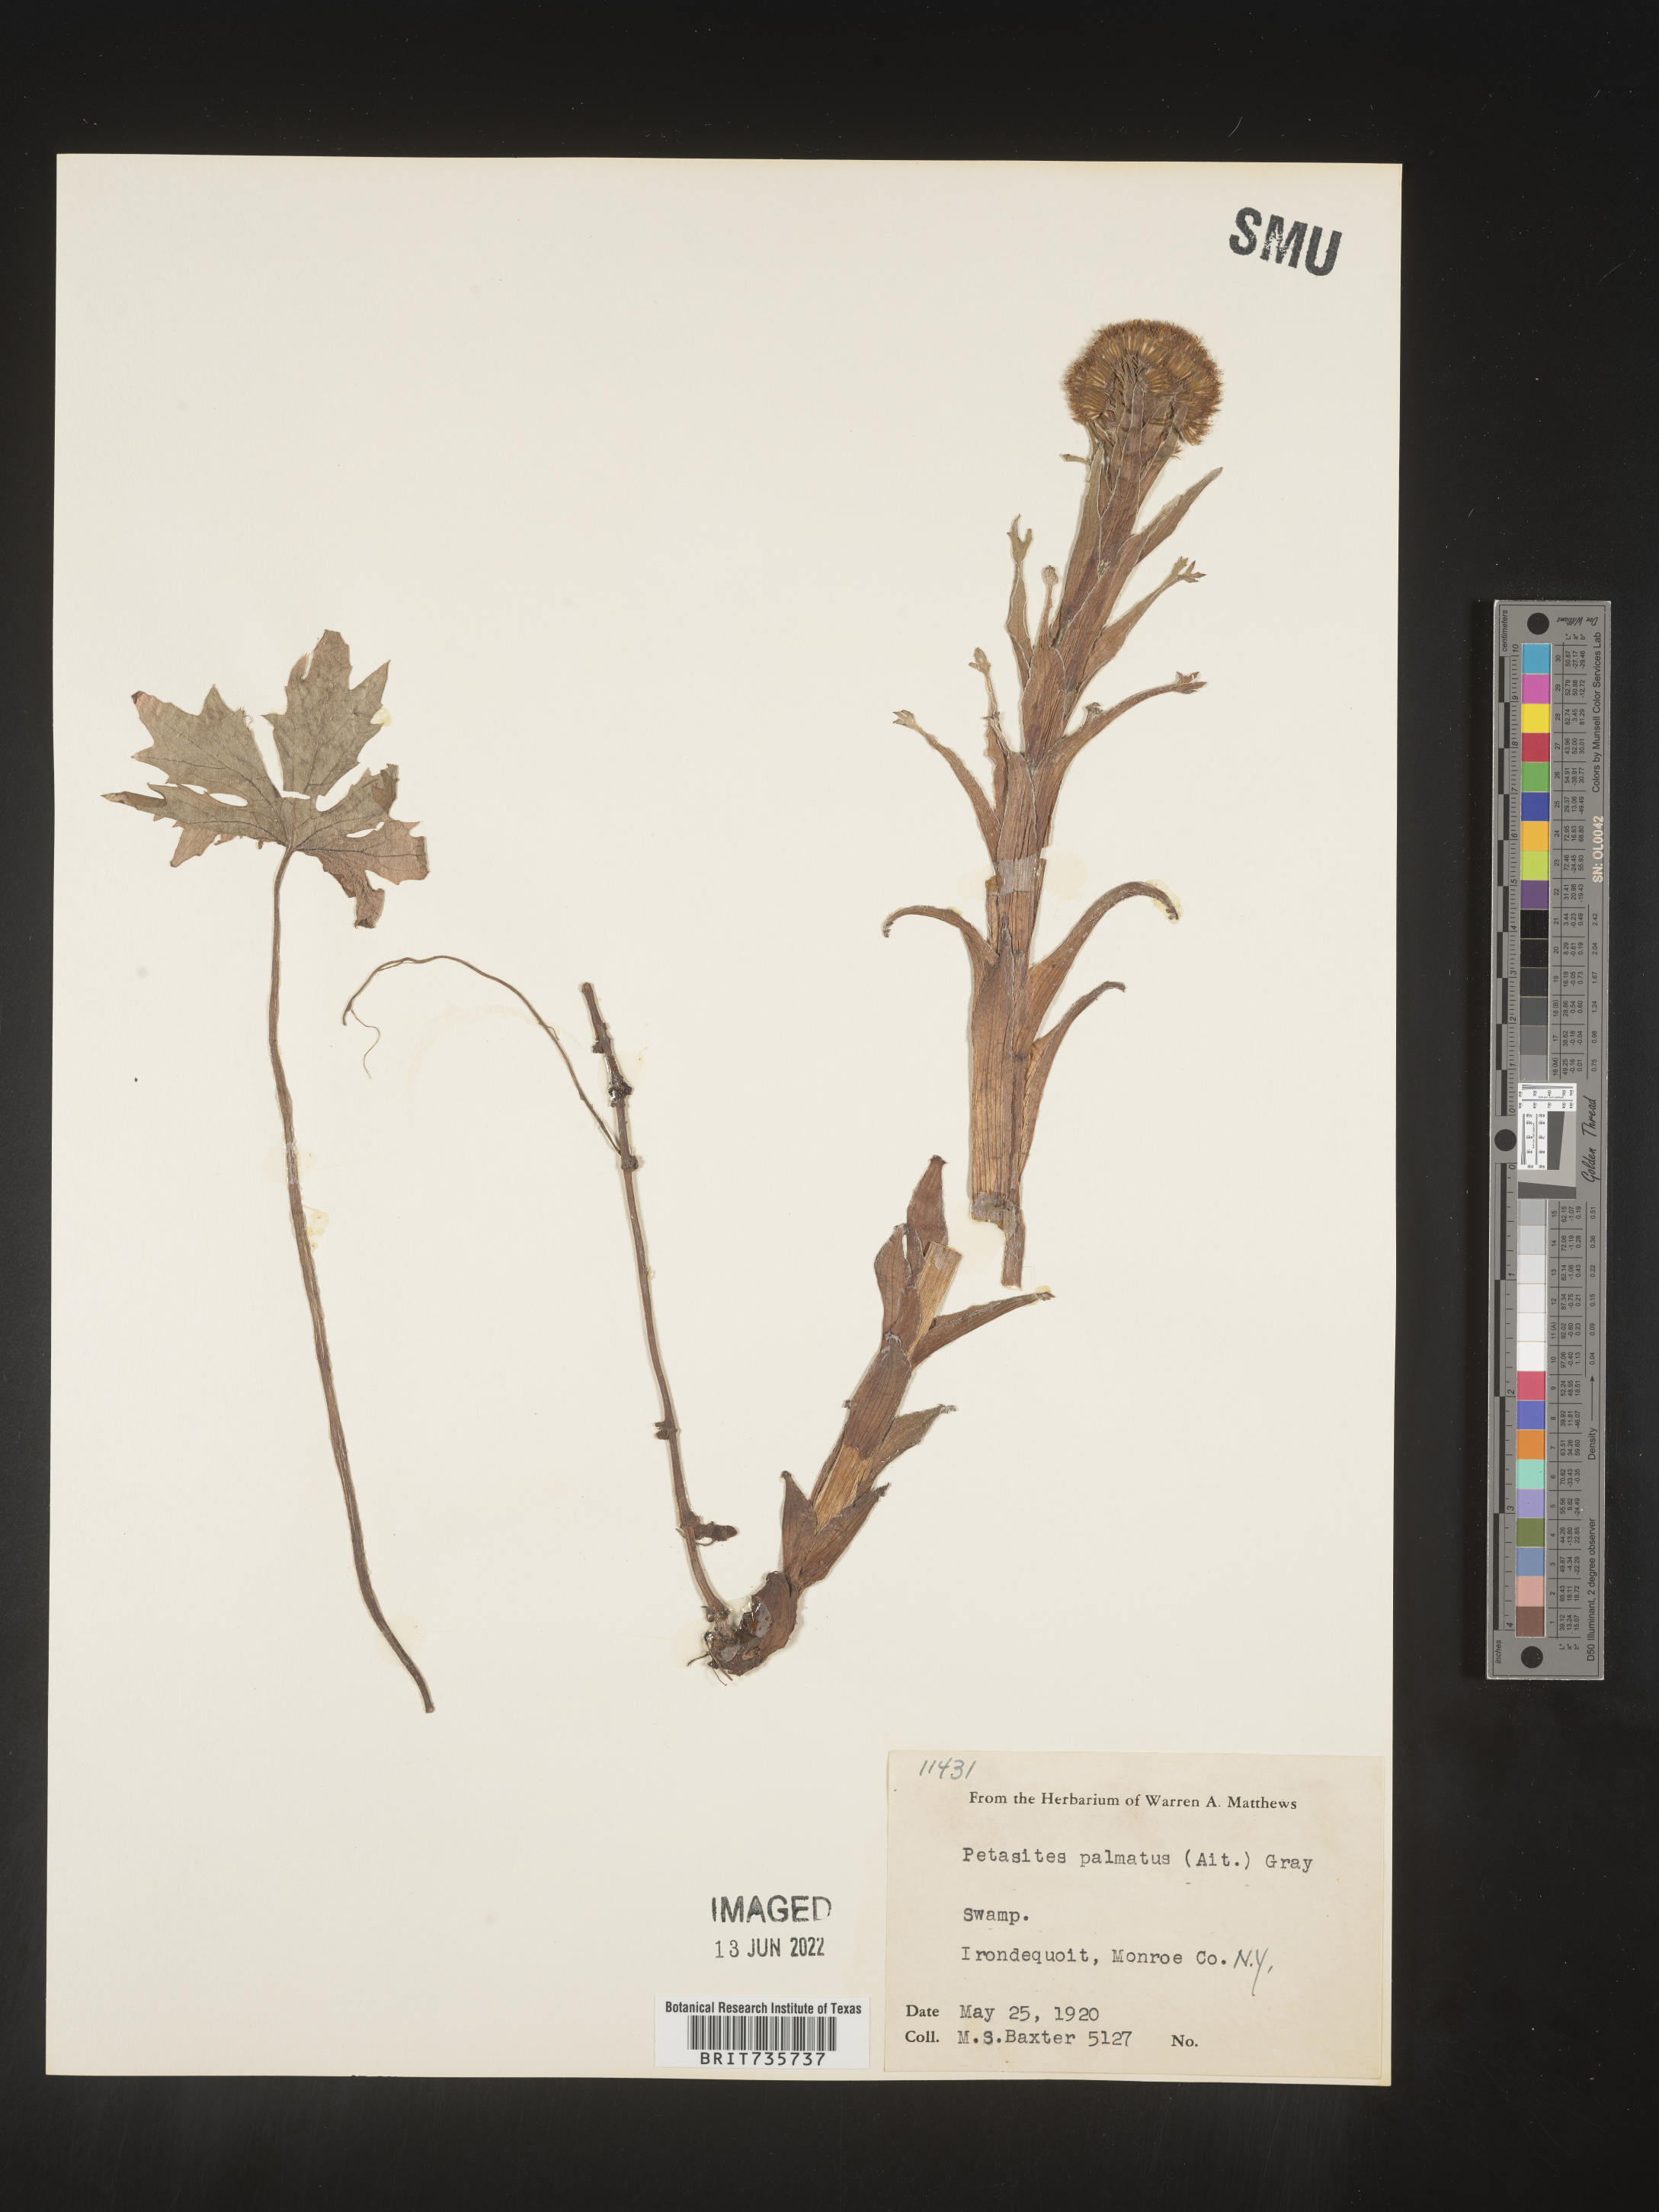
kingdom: Plantae
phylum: Tracheophyta
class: Magnoliopsida
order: Asterales
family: Asteraceae
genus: Petasites
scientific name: Petasites frigidus
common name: Arctic butterbur
